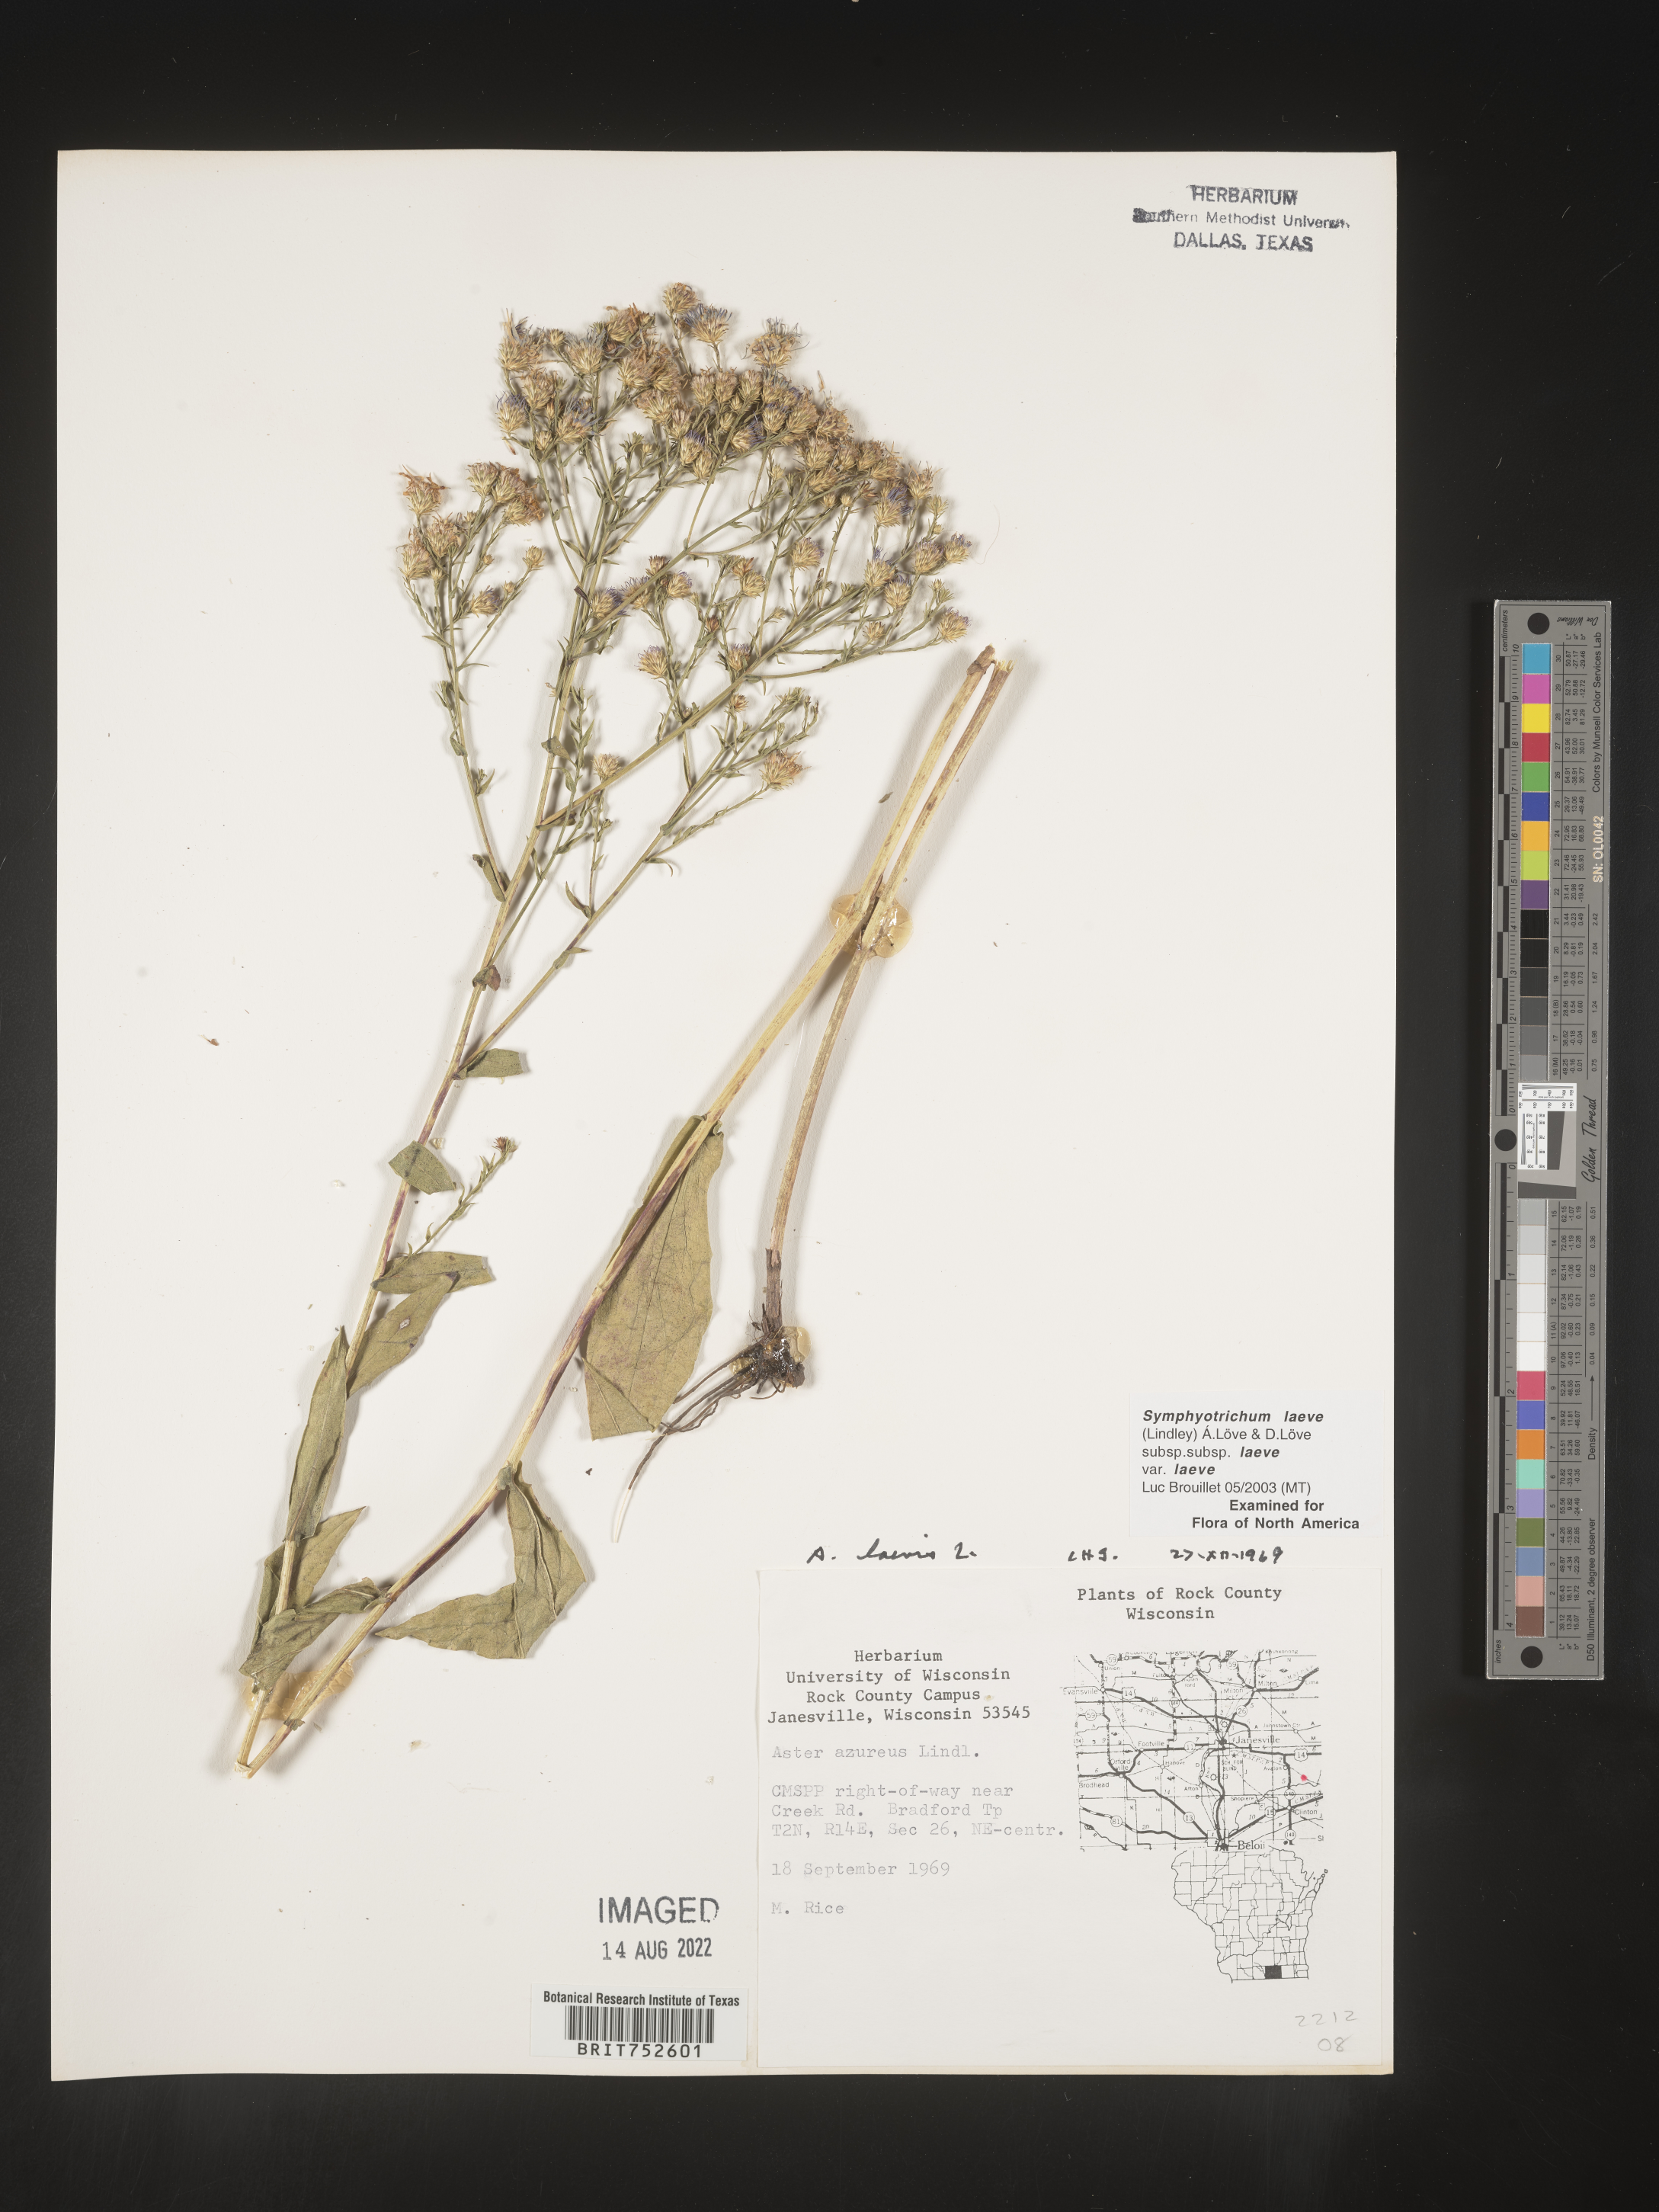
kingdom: Plantae
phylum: Tracheophyta
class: Magnoliopsida
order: Asterales
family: Asteraceae
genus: Symphyotrichum
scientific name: Symphyotrichum laeve
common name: Glaucous aster
